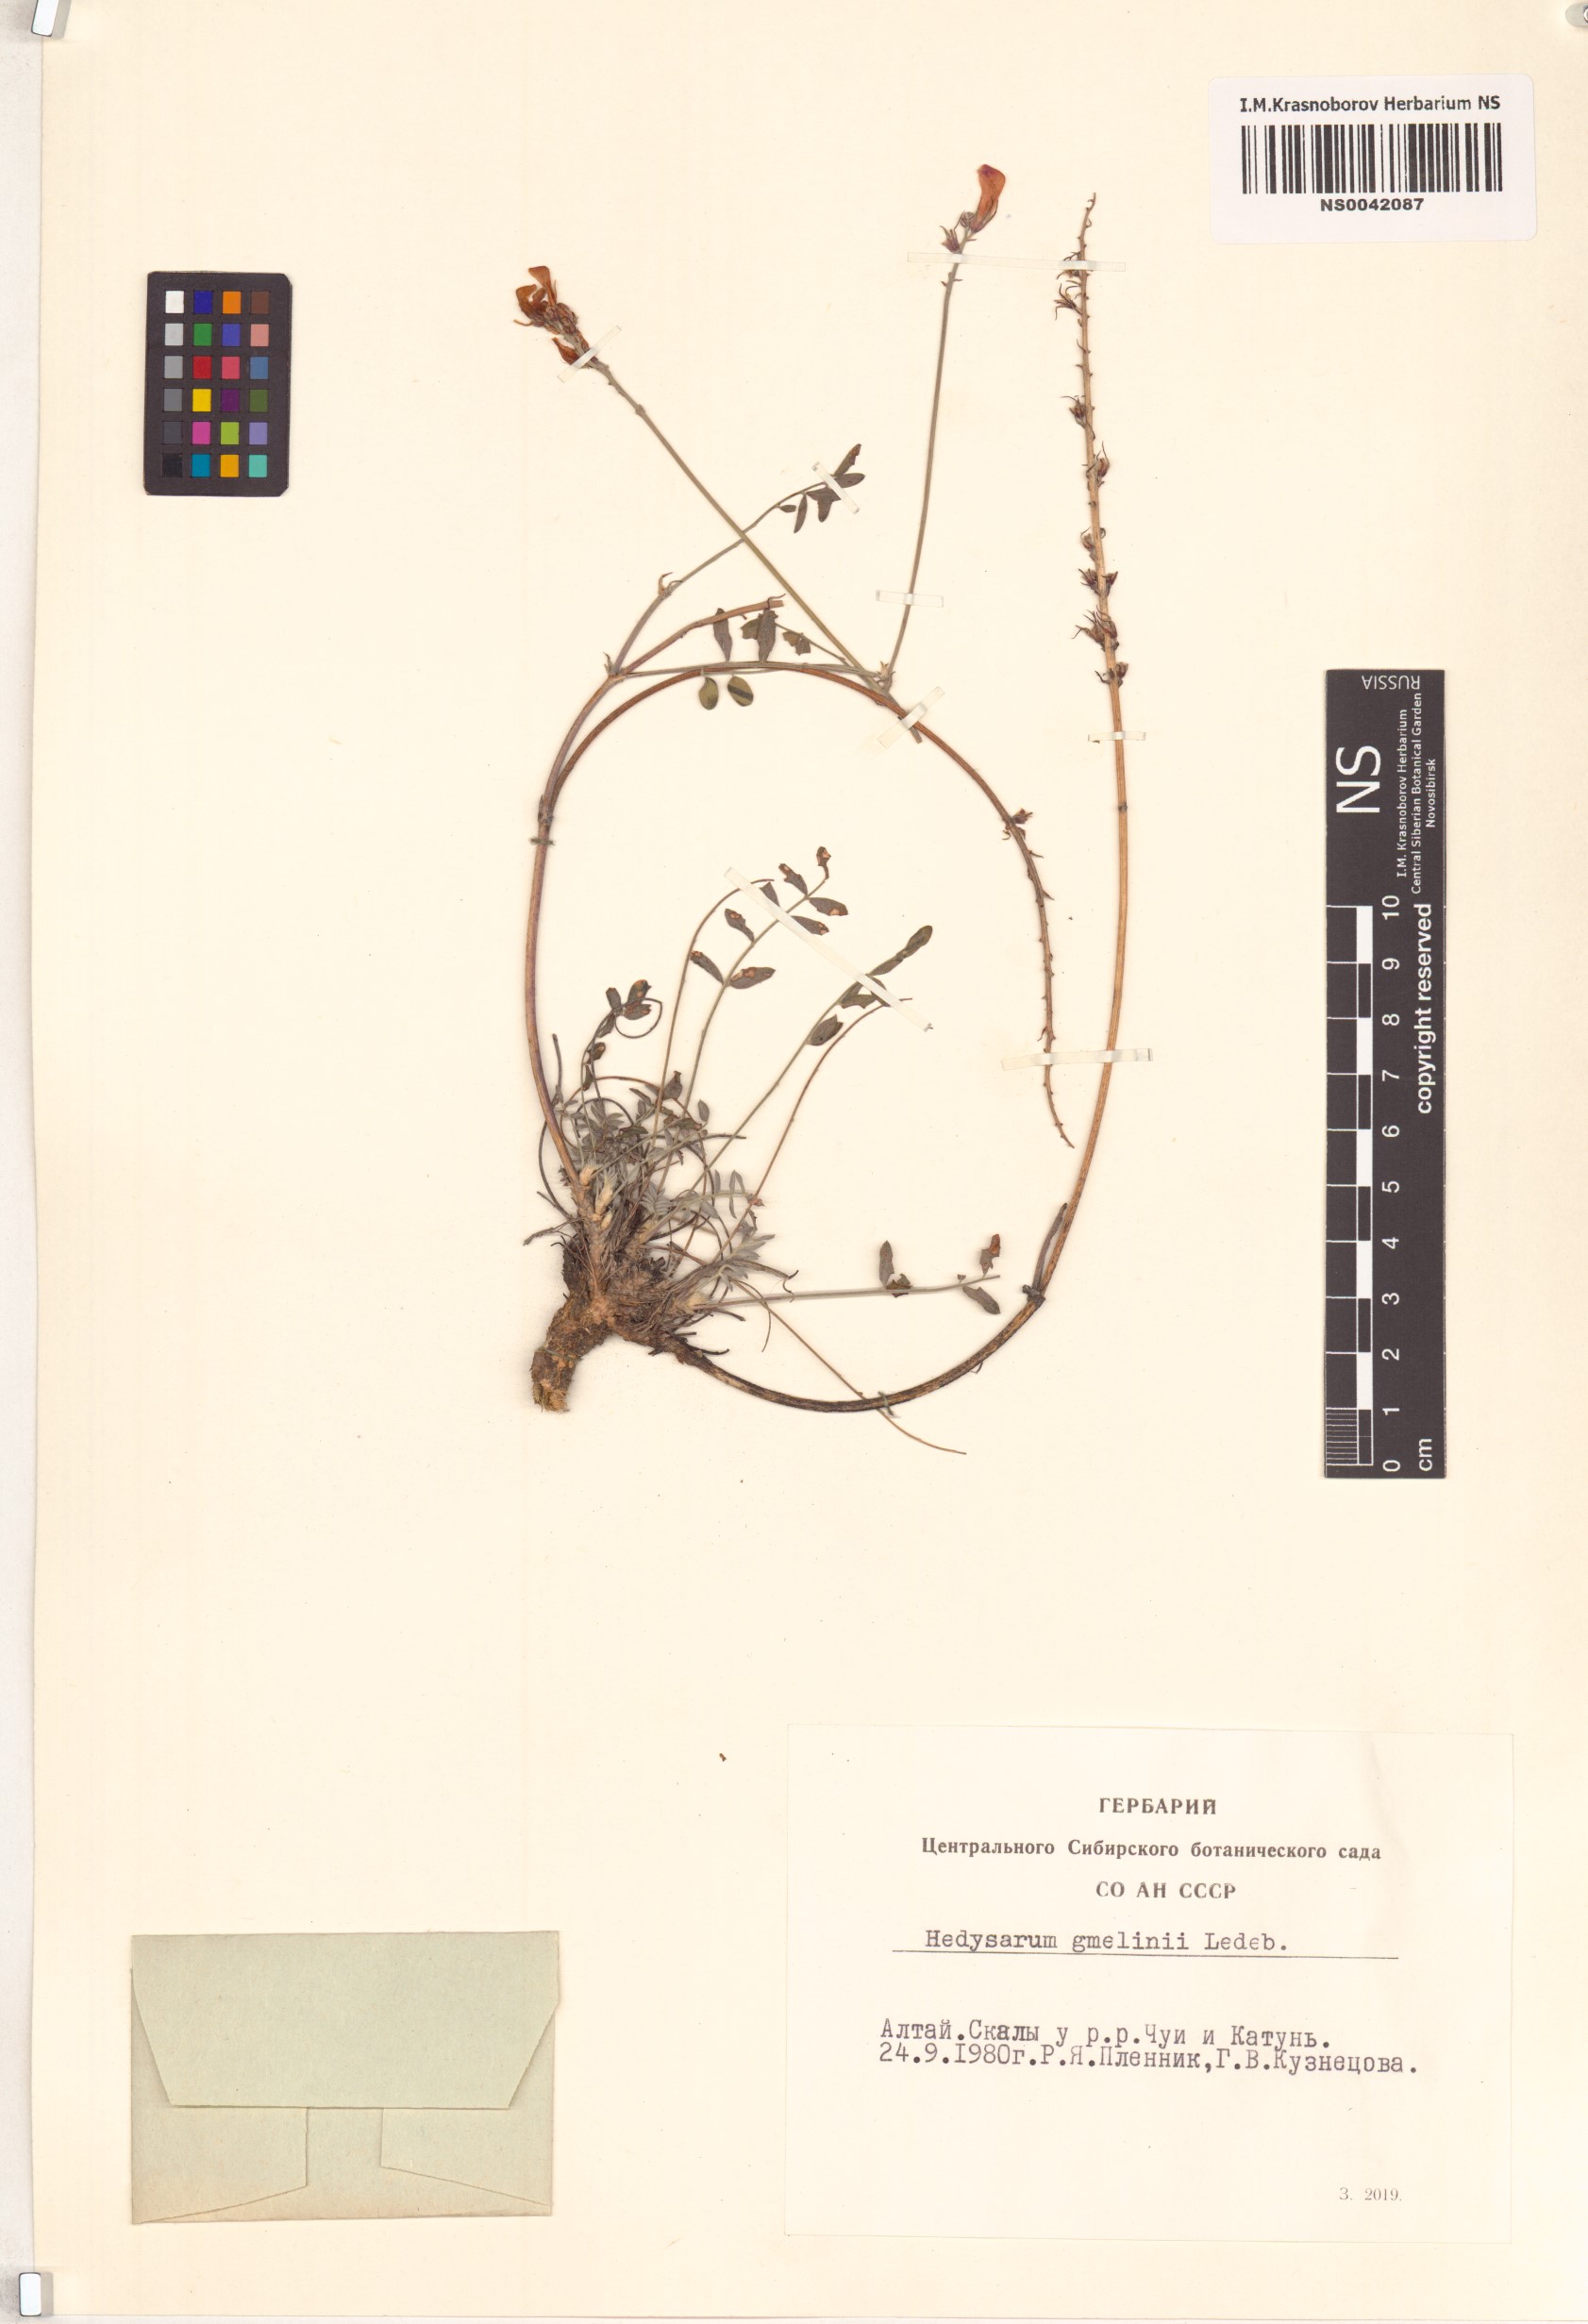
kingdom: Plantae
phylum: Tracheophyta
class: Magnoliopsida
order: Fabales
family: Fabaceae
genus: Hedysarum
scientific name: Hedysarum gmelinii
